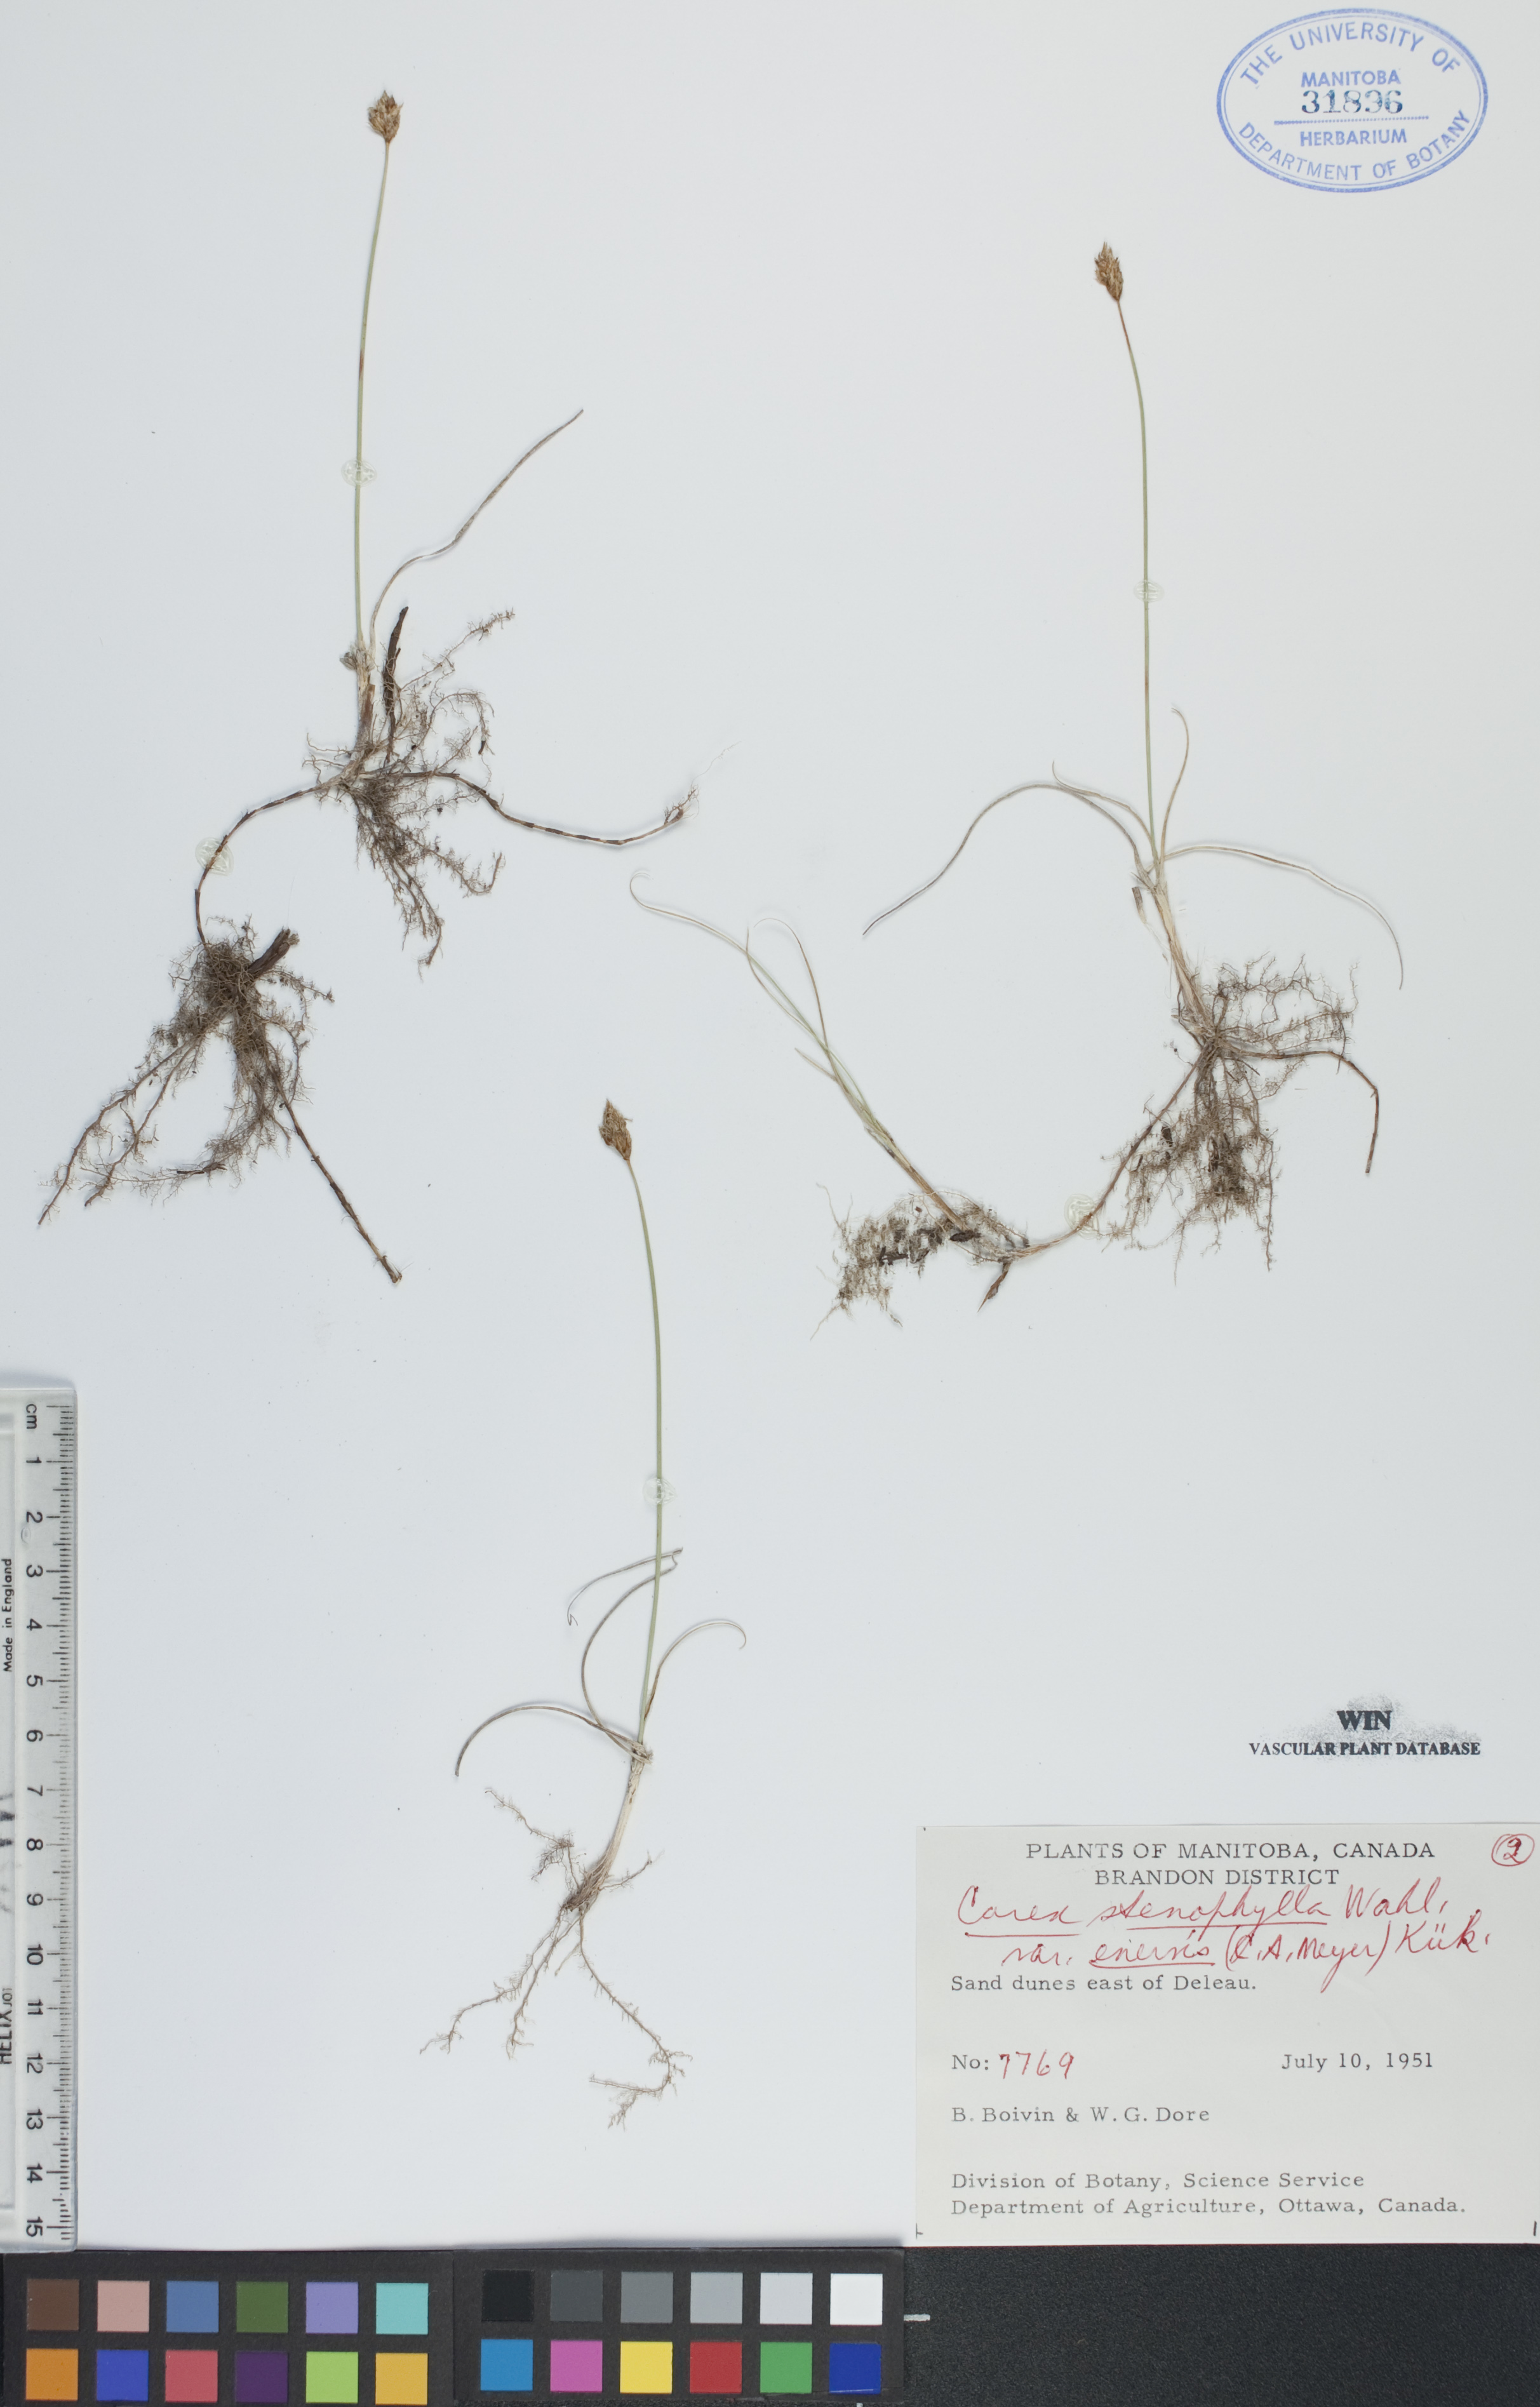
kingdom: Plantae
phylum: Tracheophyta
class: Liliopsida
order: Poales
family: Cyperaceae
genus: Carex
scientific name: Carex enervis
